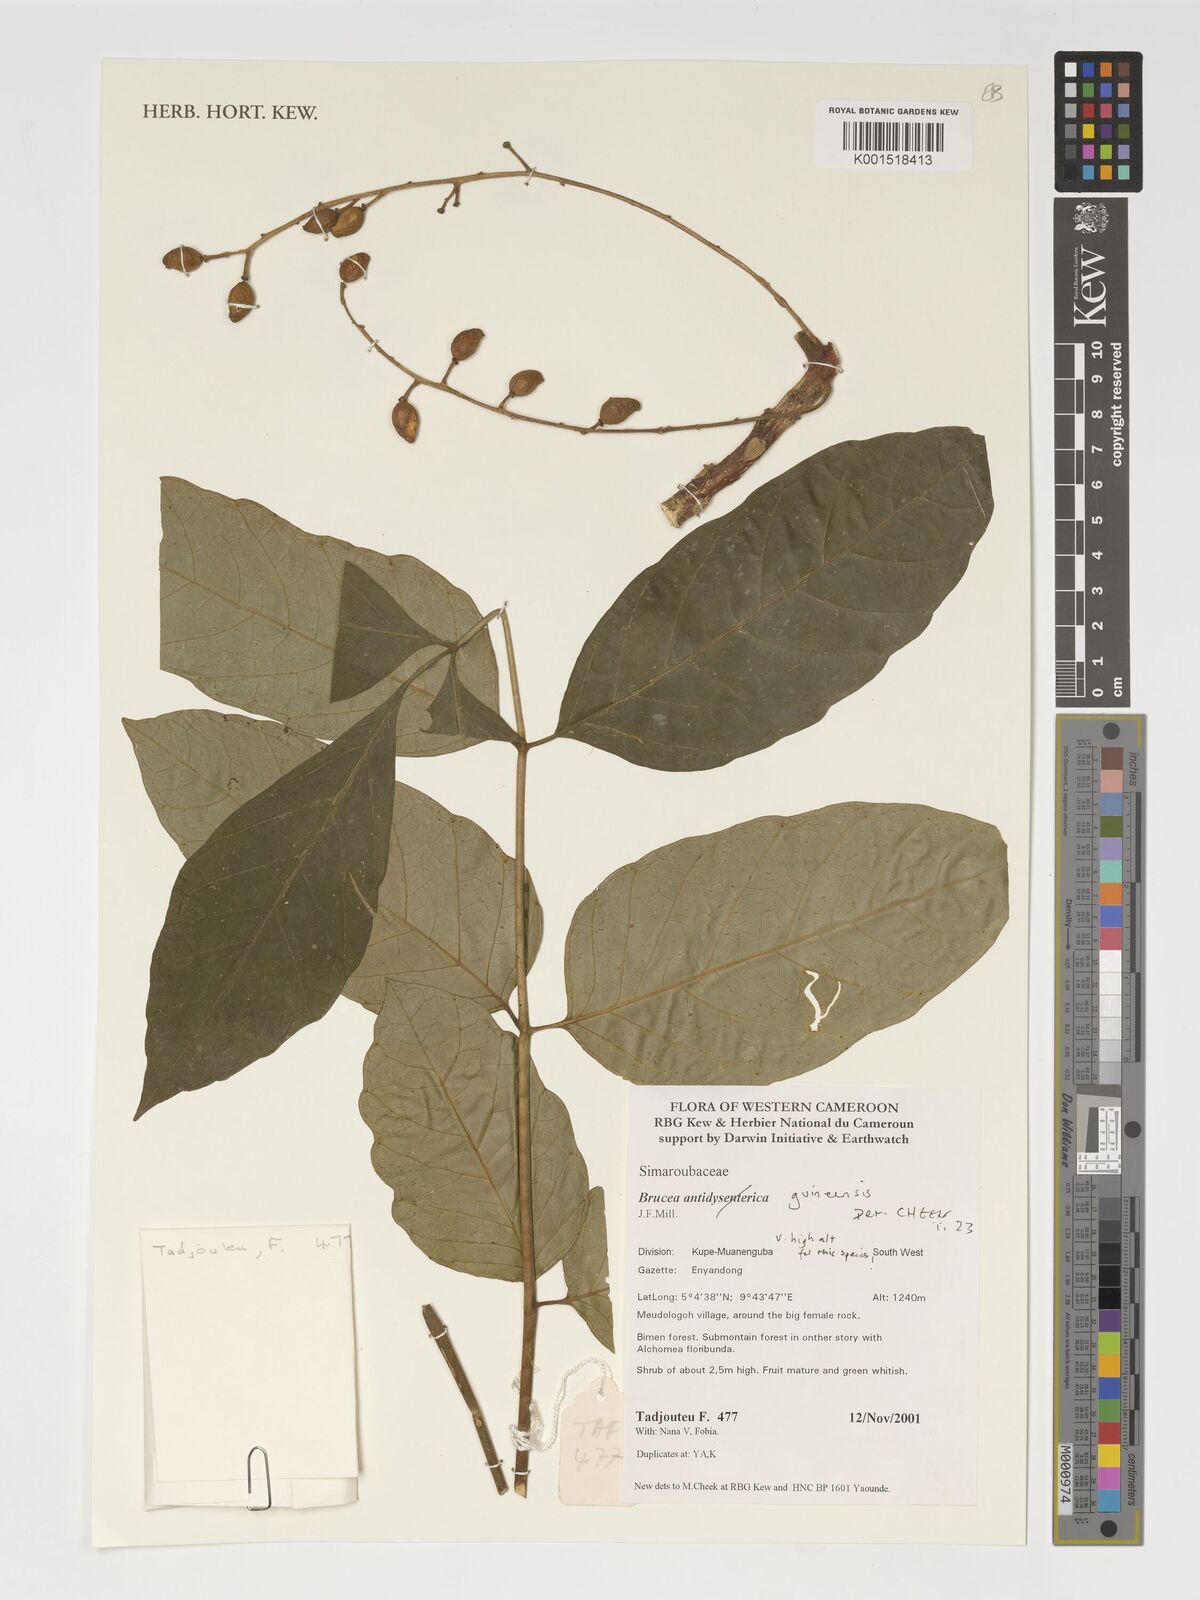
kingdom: Plantae
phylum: Tracheophyta
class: Magnoliopsida
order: Sapindales
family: Anacardiaceae
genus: Trichoscypha
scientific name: Trichoscypha smythei
